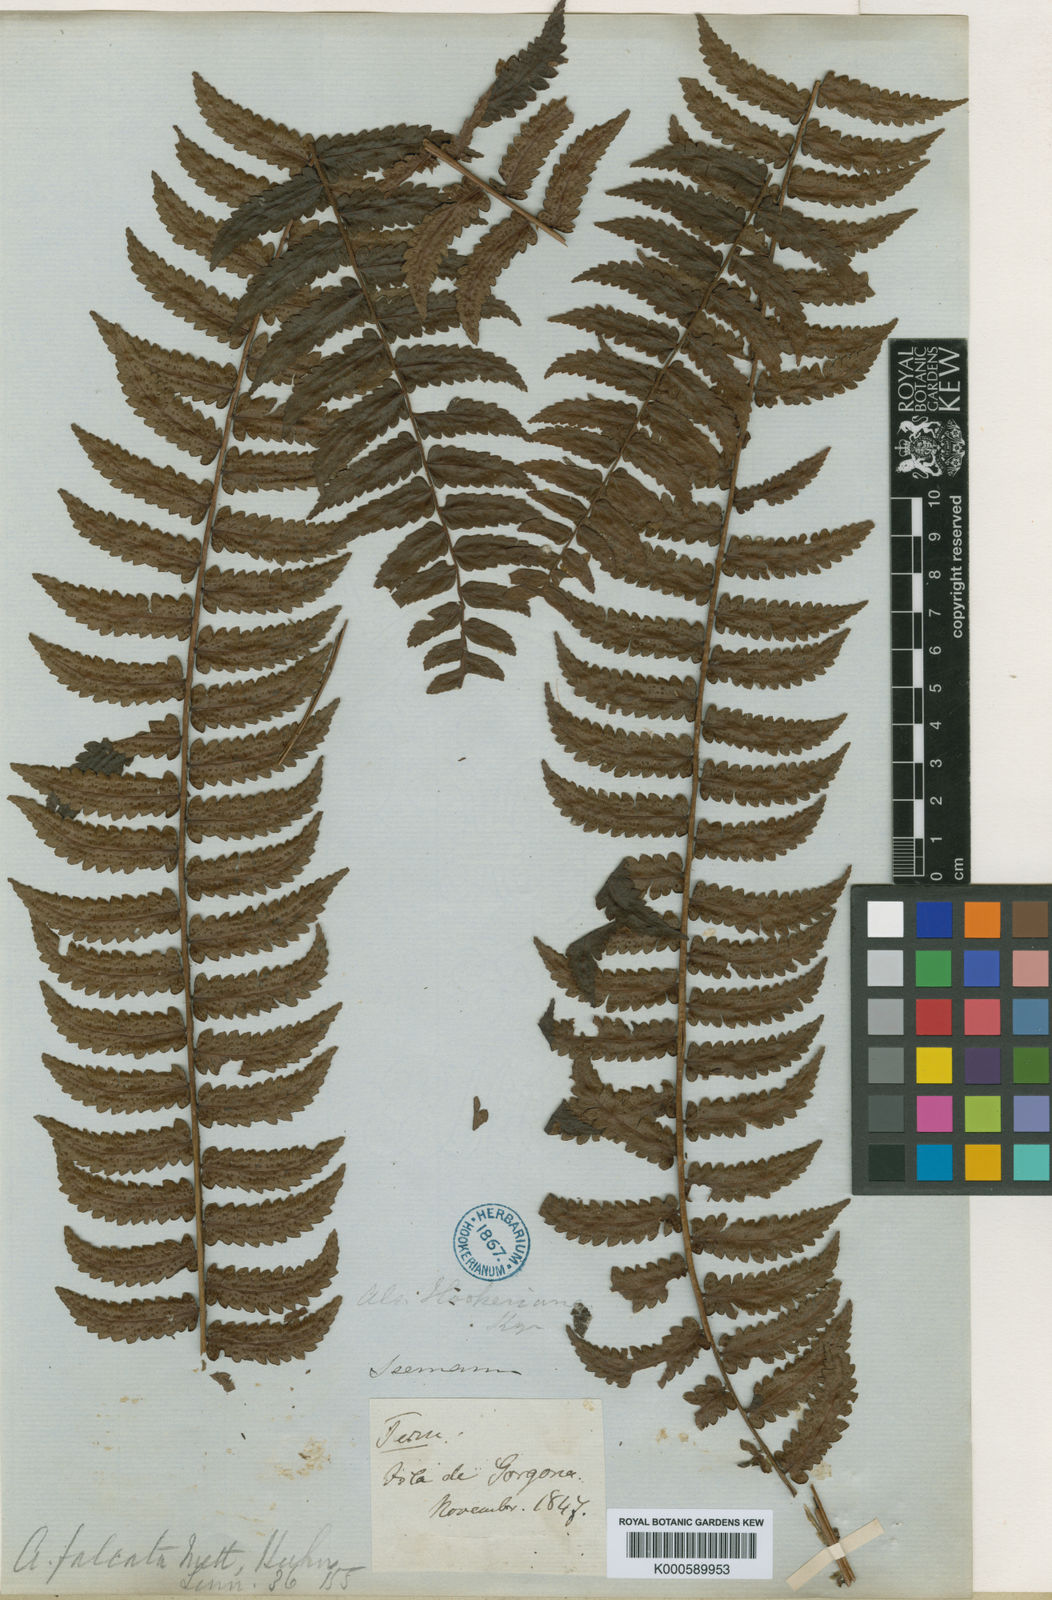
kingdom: Plantae
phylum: Tracheophyta
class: Polypodiopsida
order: Cyatheales
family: Cyatheaceae
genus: Cyathea
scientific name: Cyathea falcata
